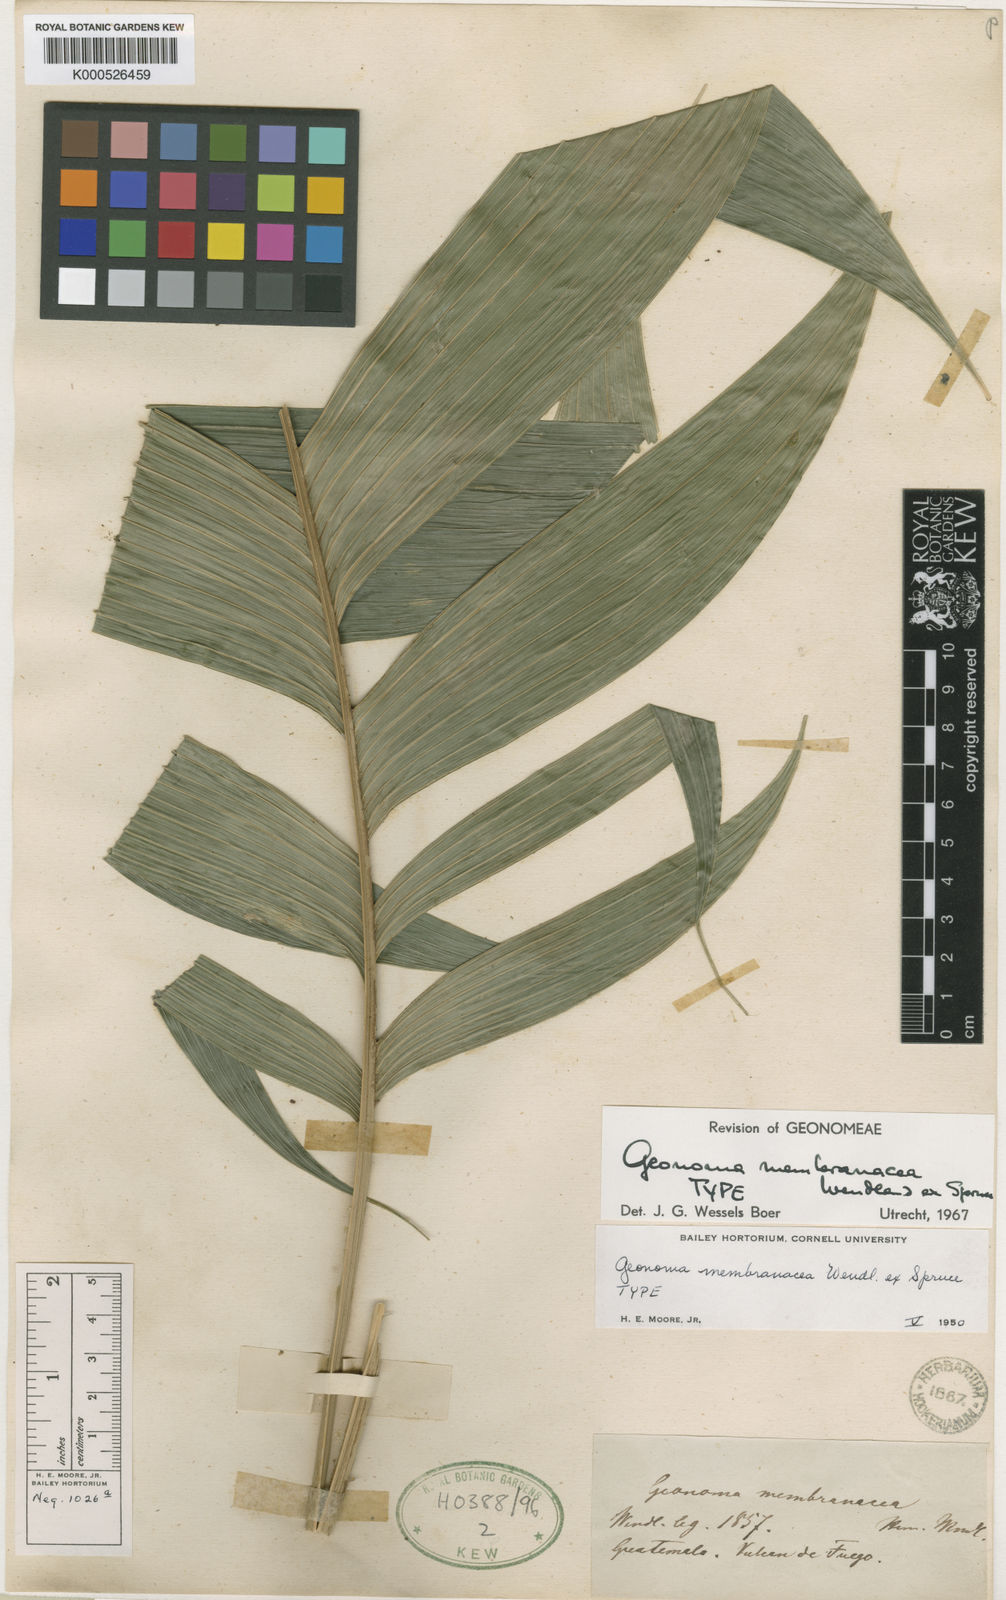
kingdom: Plantae
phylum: Tracheophyta
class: Liliopsida
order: Arecales
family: Arecaceae
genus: Geonoma
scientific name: Geonoma pinnatifrons
